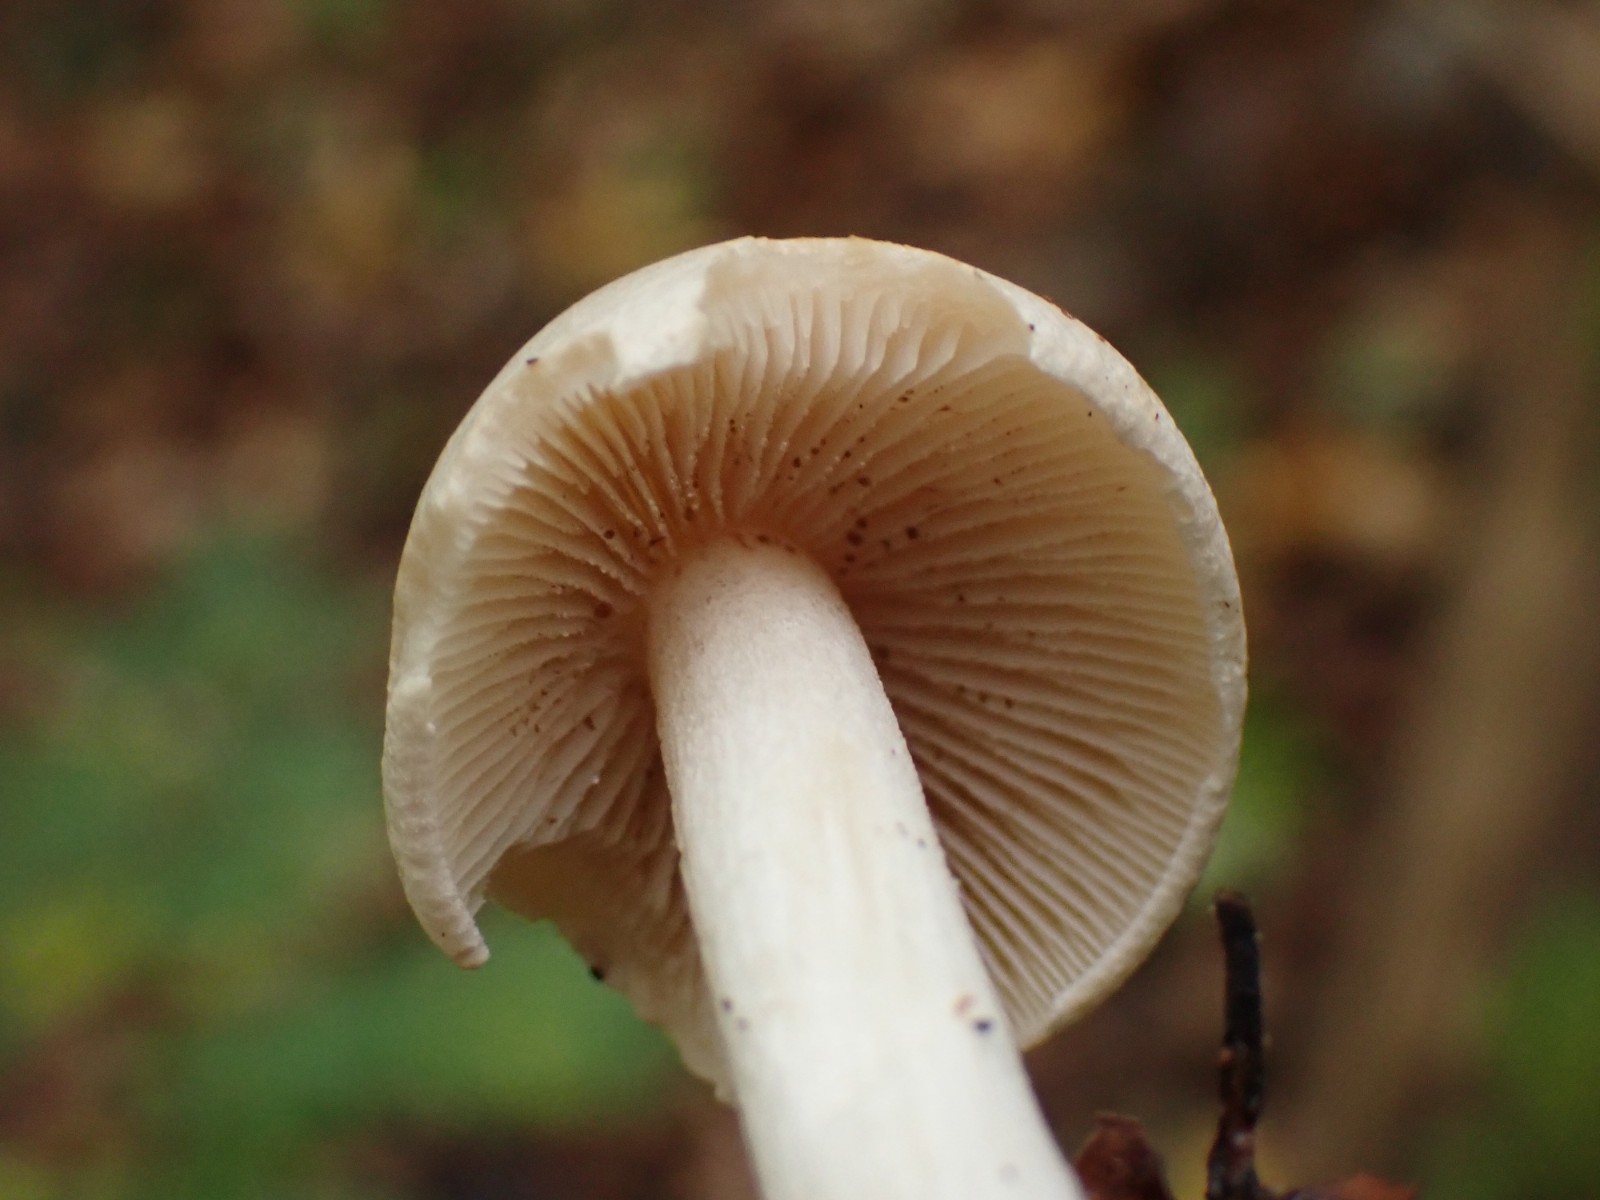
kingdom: Fungi
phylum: Basidiomycota
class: Agaricomycetes
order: Agaricales
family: Hymenogastraceae
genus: Hebeloma
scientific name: Hebeloma crustuliniforme
